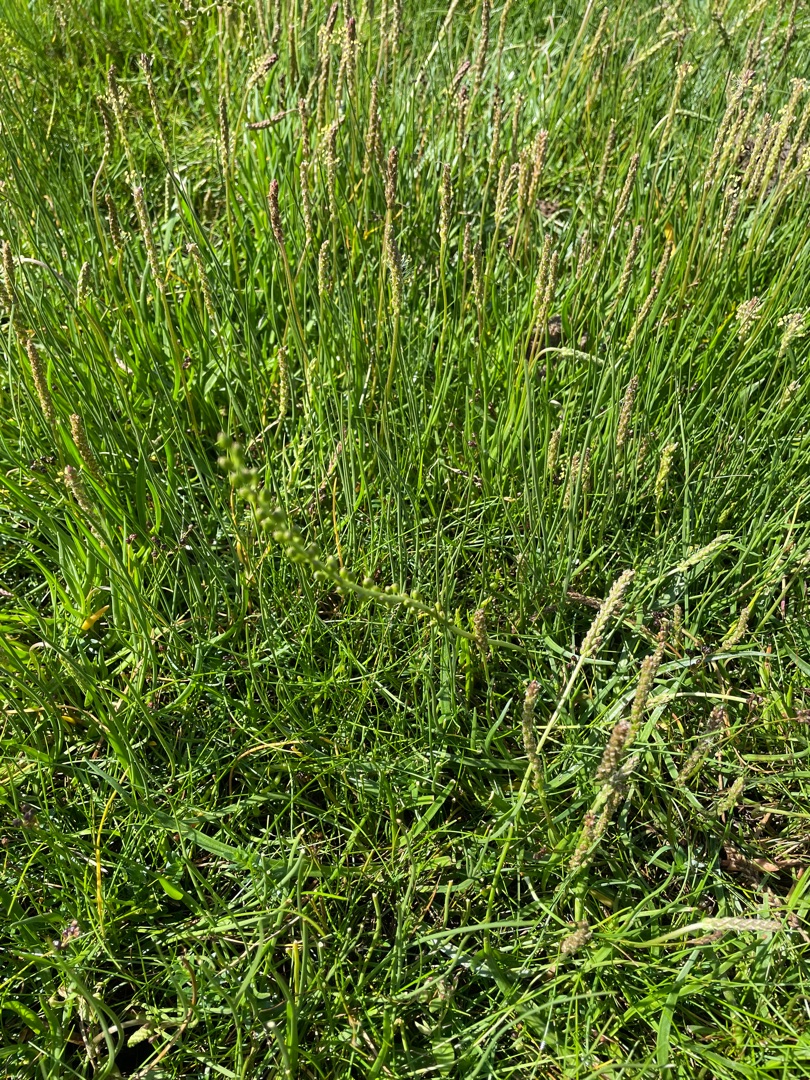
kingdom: Plantae
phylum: Tracheophyta
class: Liliopsida
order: Alismatales
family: Juncaginaceae
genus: Triglochin
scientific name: Triglochin maritima
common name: Strand-trehage
